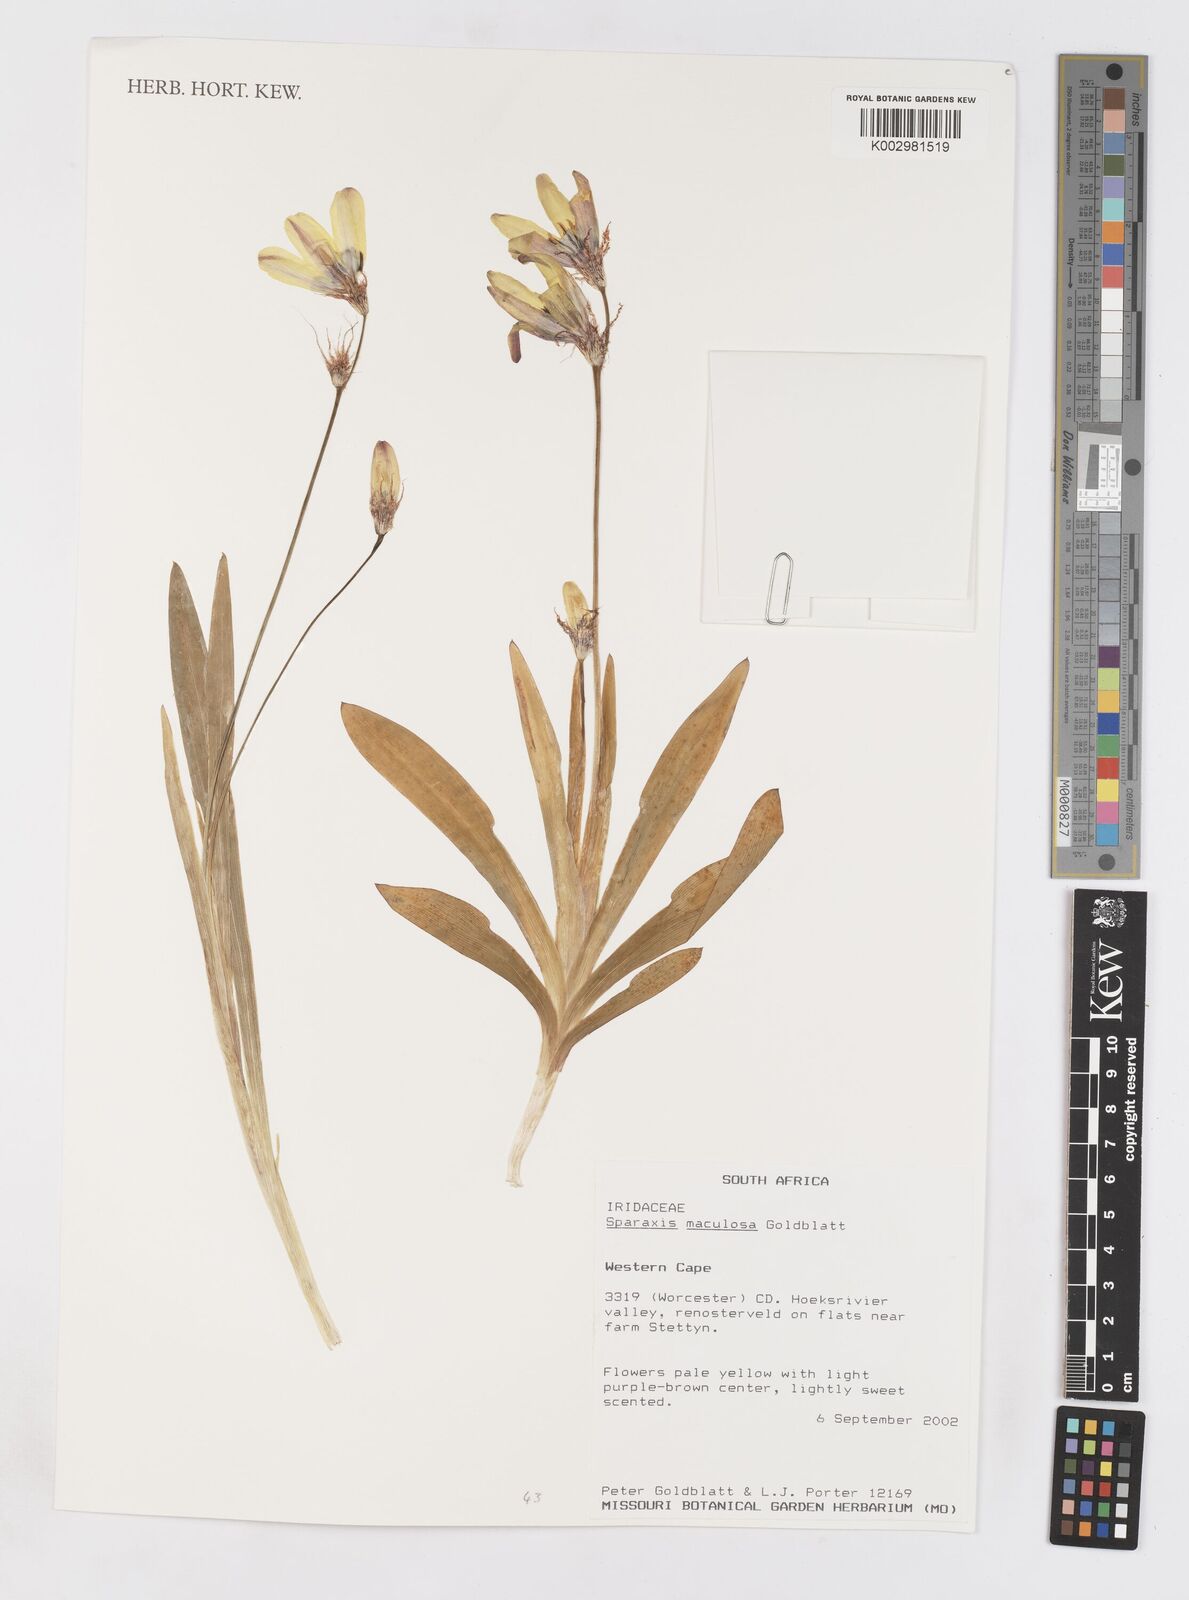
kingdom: Plantae
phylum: Tracheophyta
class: Liliopsida
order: Asparagales
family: Iridaceae
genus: Sparaxis
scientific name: Sparaxis maculosa
